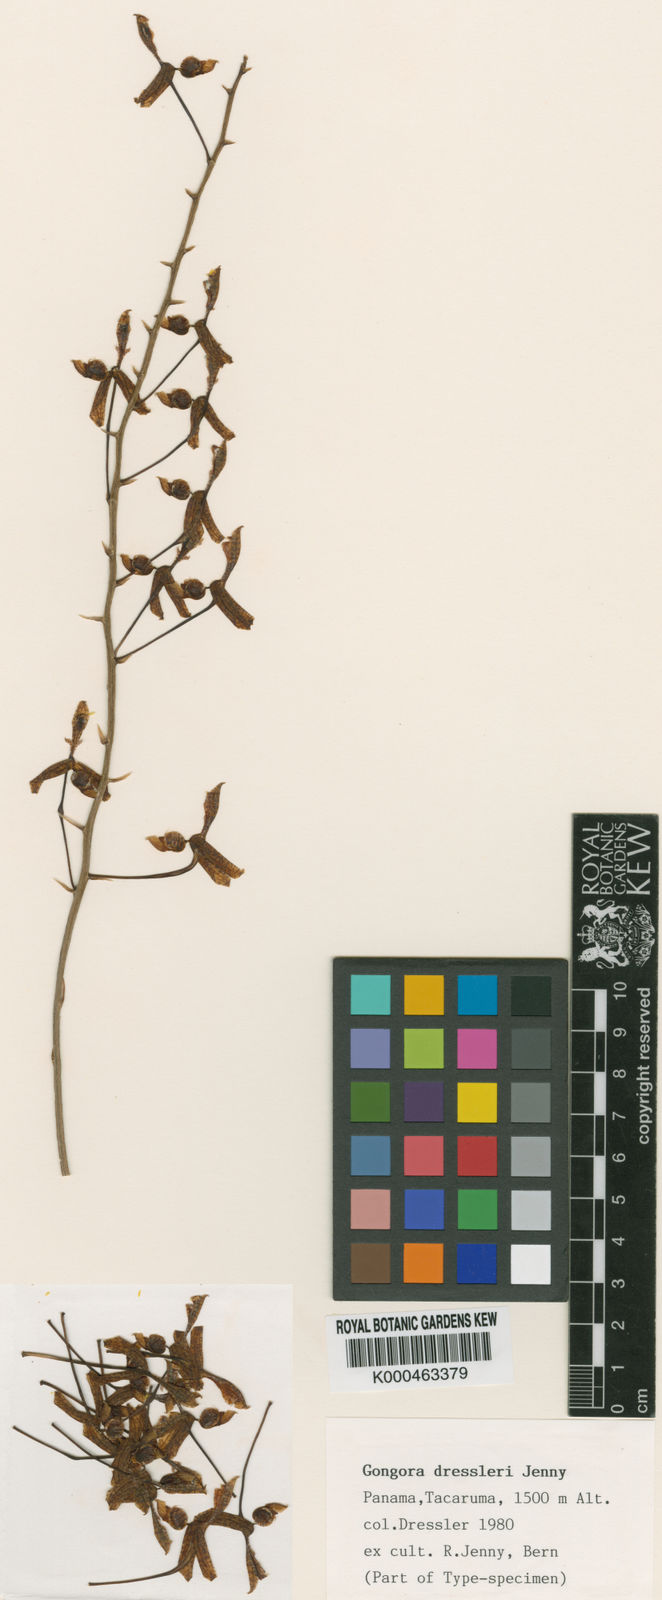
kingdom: Plantae
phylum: Tracheophyta
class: Liliopsida
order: Asparagales
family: Orchidaceae
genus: Gongora
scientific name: Gongora tracyana
